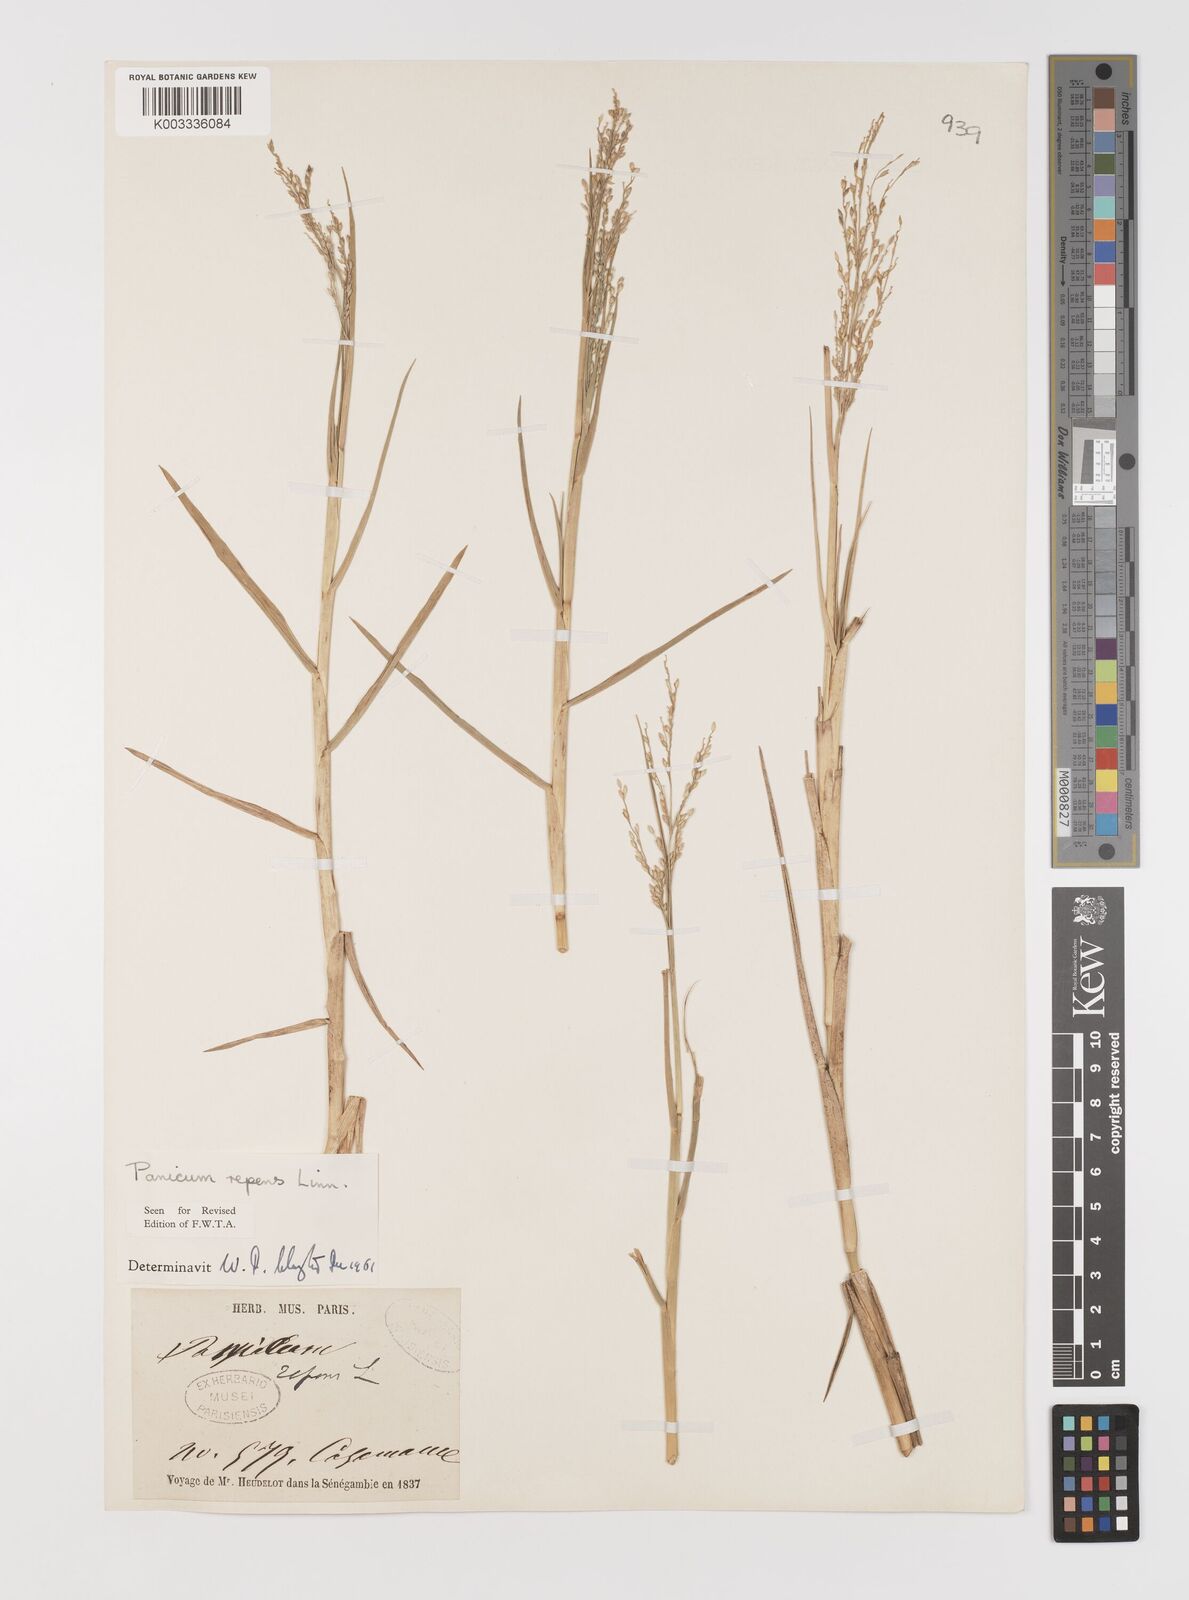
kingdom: Plantae
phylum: Tracheophyta
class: Liliopsida
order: Poales
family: Poaceae
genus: Panicum
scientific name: Panicum repens
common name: Torpedo grass
